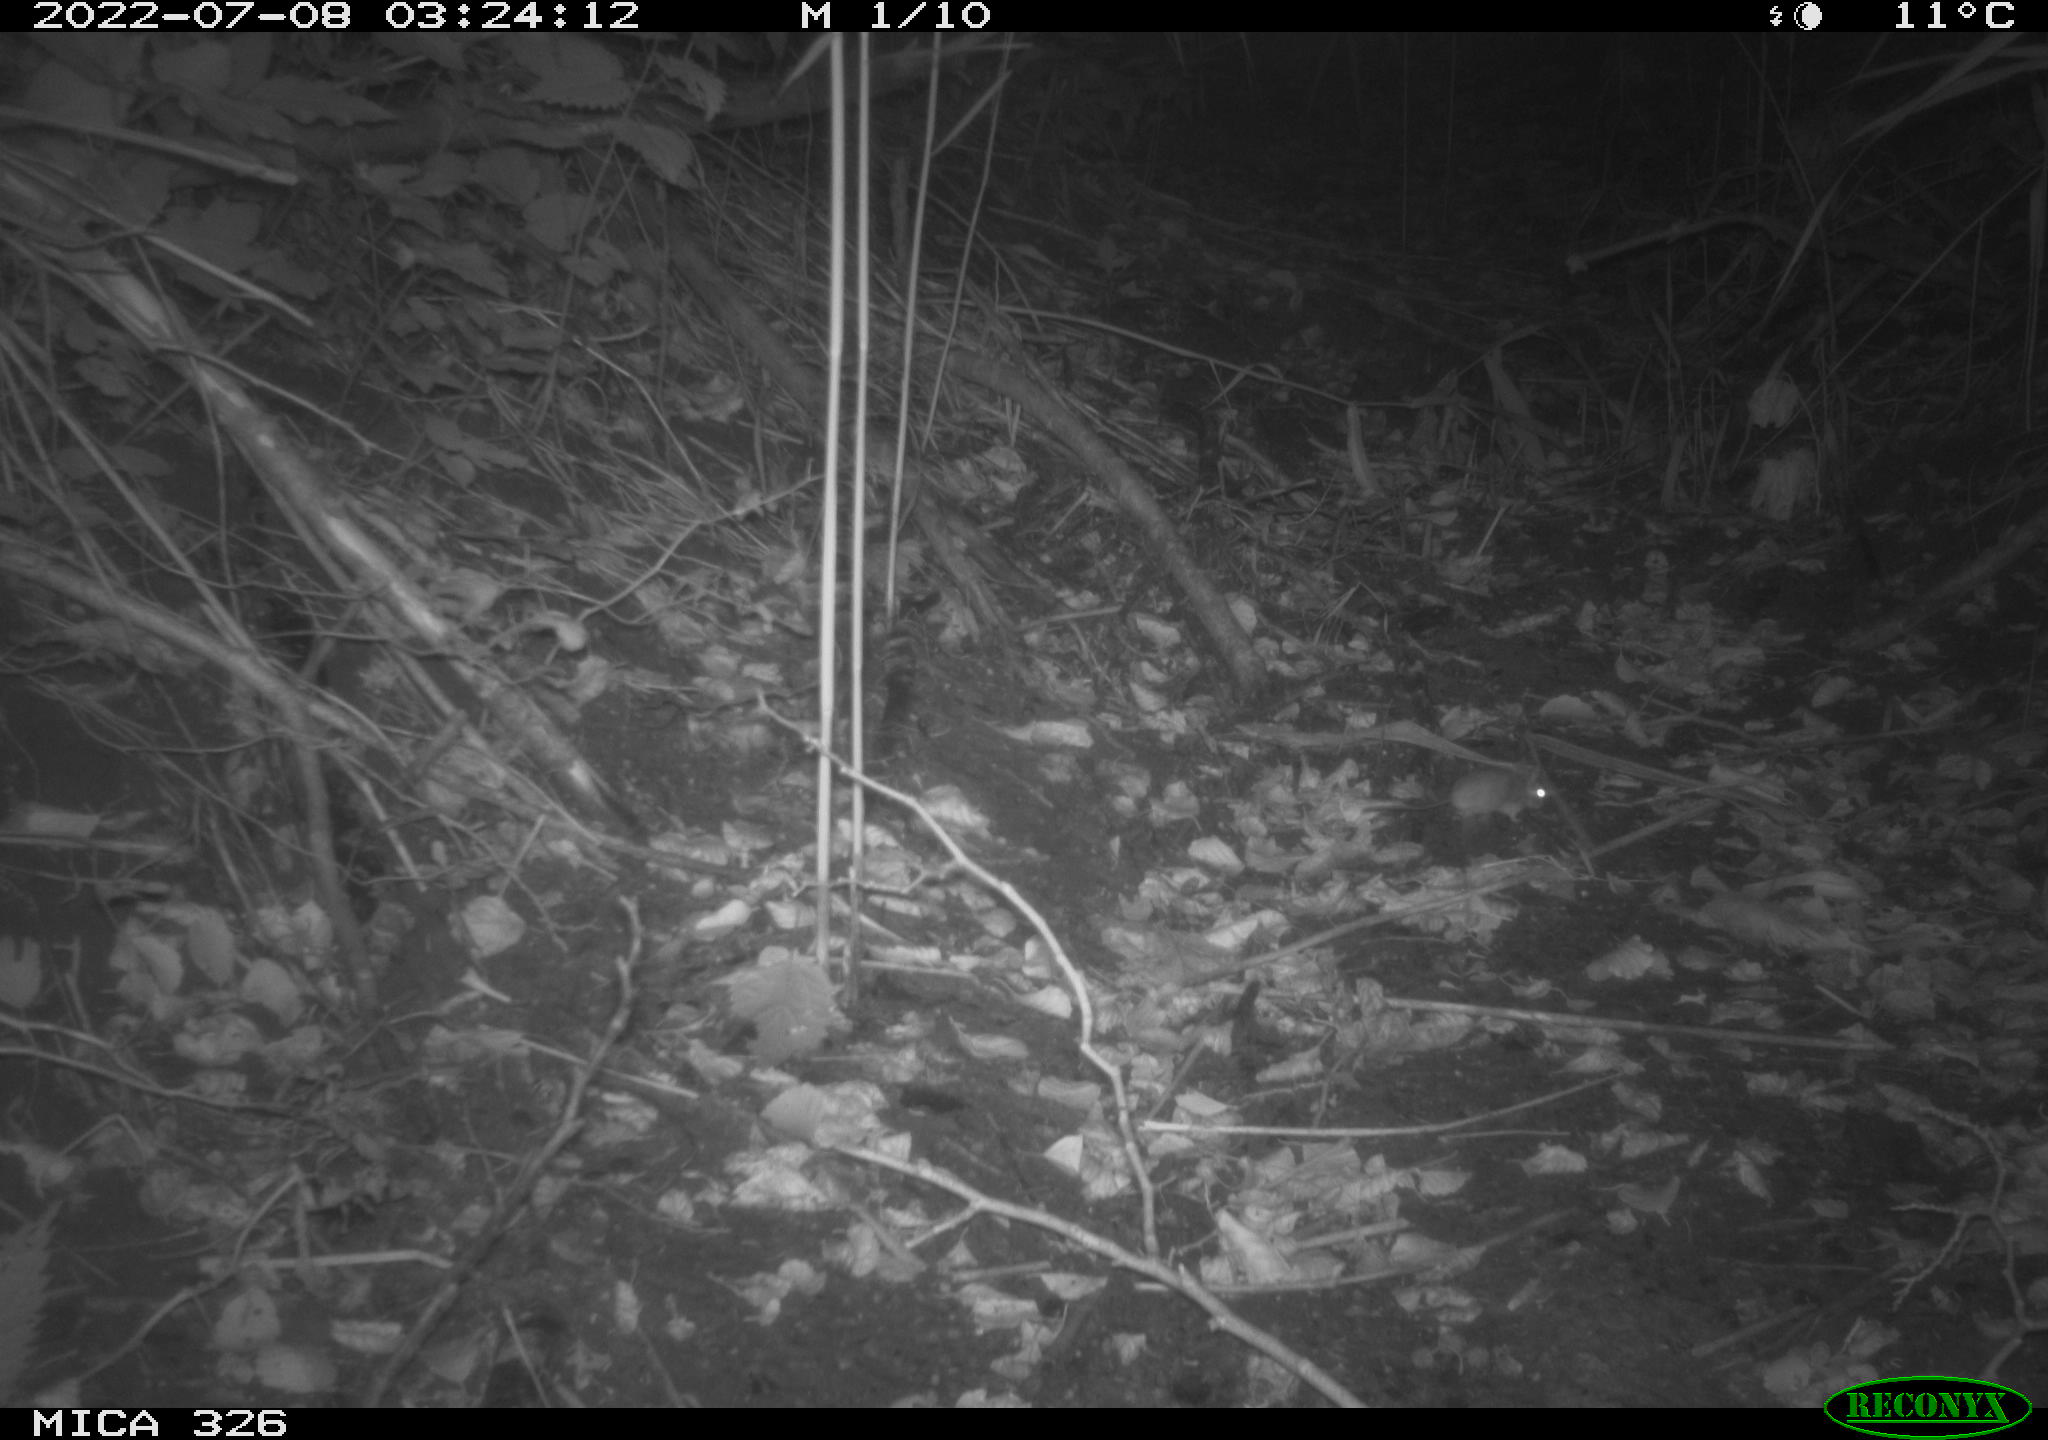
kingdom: Animalia
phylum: Chordata
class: Mammalia
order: Rodentia
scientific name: Rodentia
